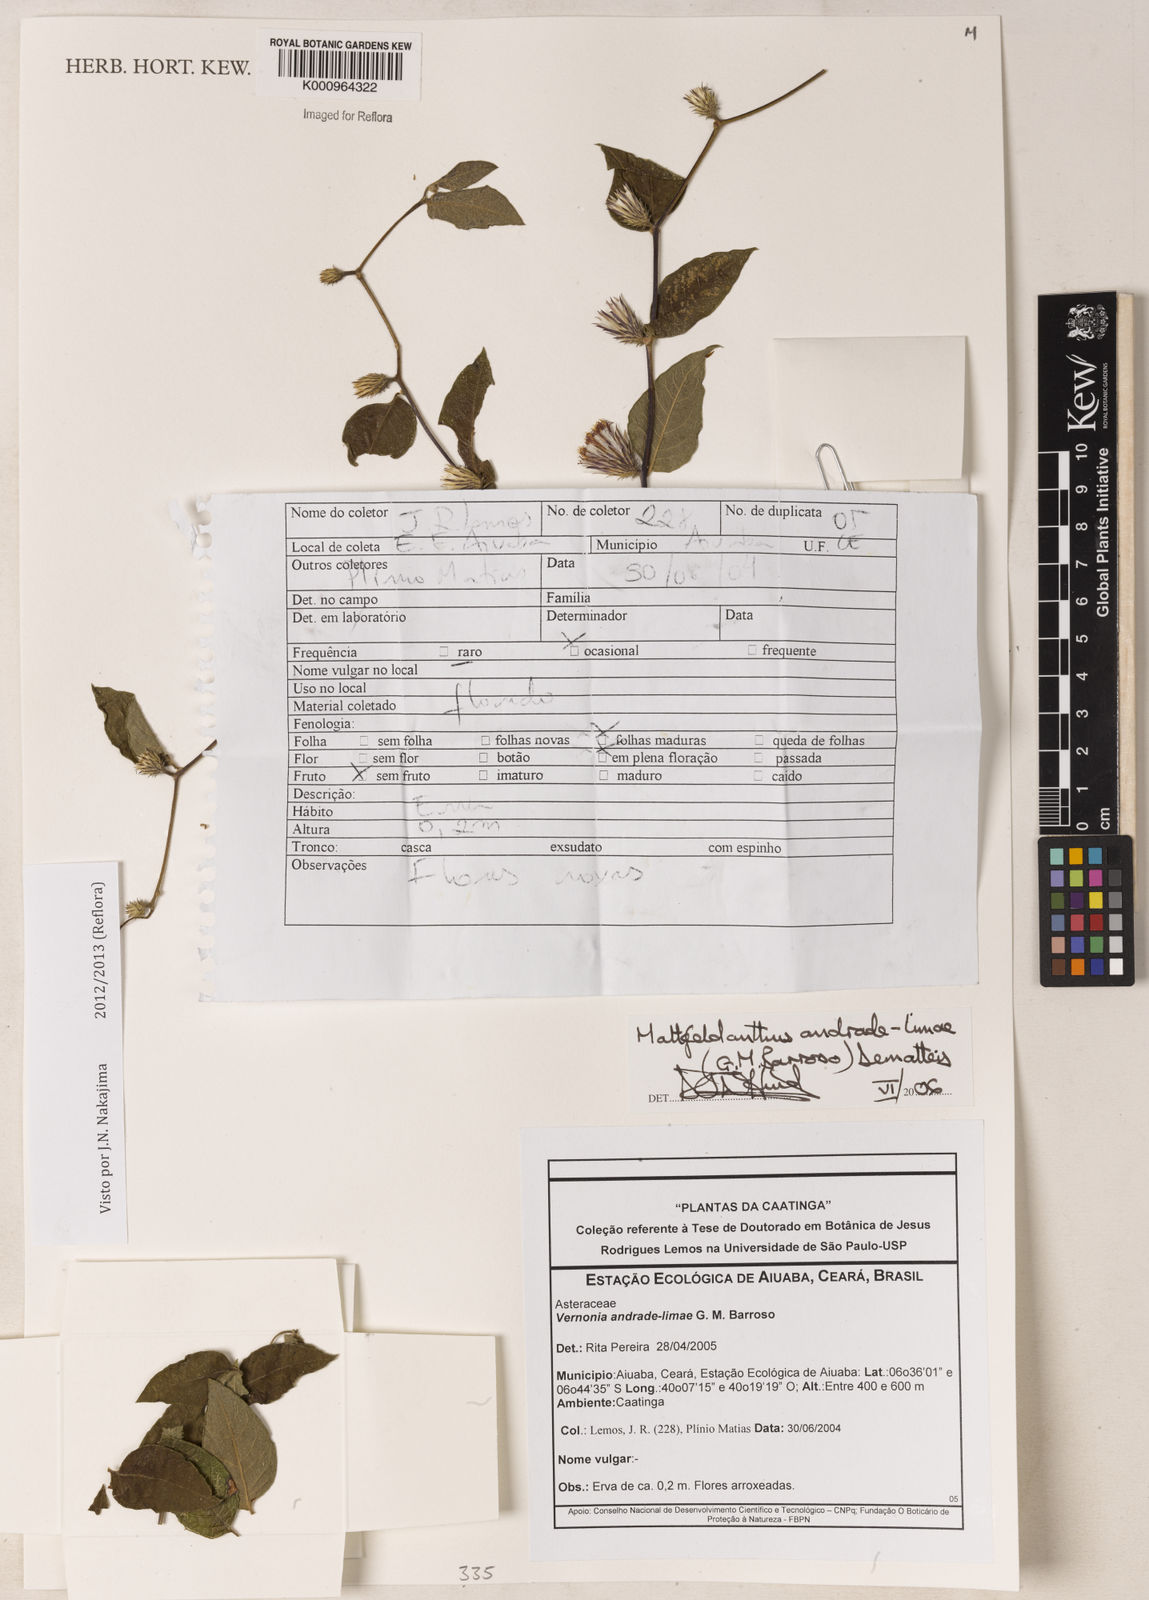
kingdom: Plantae
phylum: Tracheophyta
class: Magnoliopsida
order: Asterales
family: Asteraceae
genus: Mattfeldanthus
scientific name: Mattfeldanthus andrade-limae
